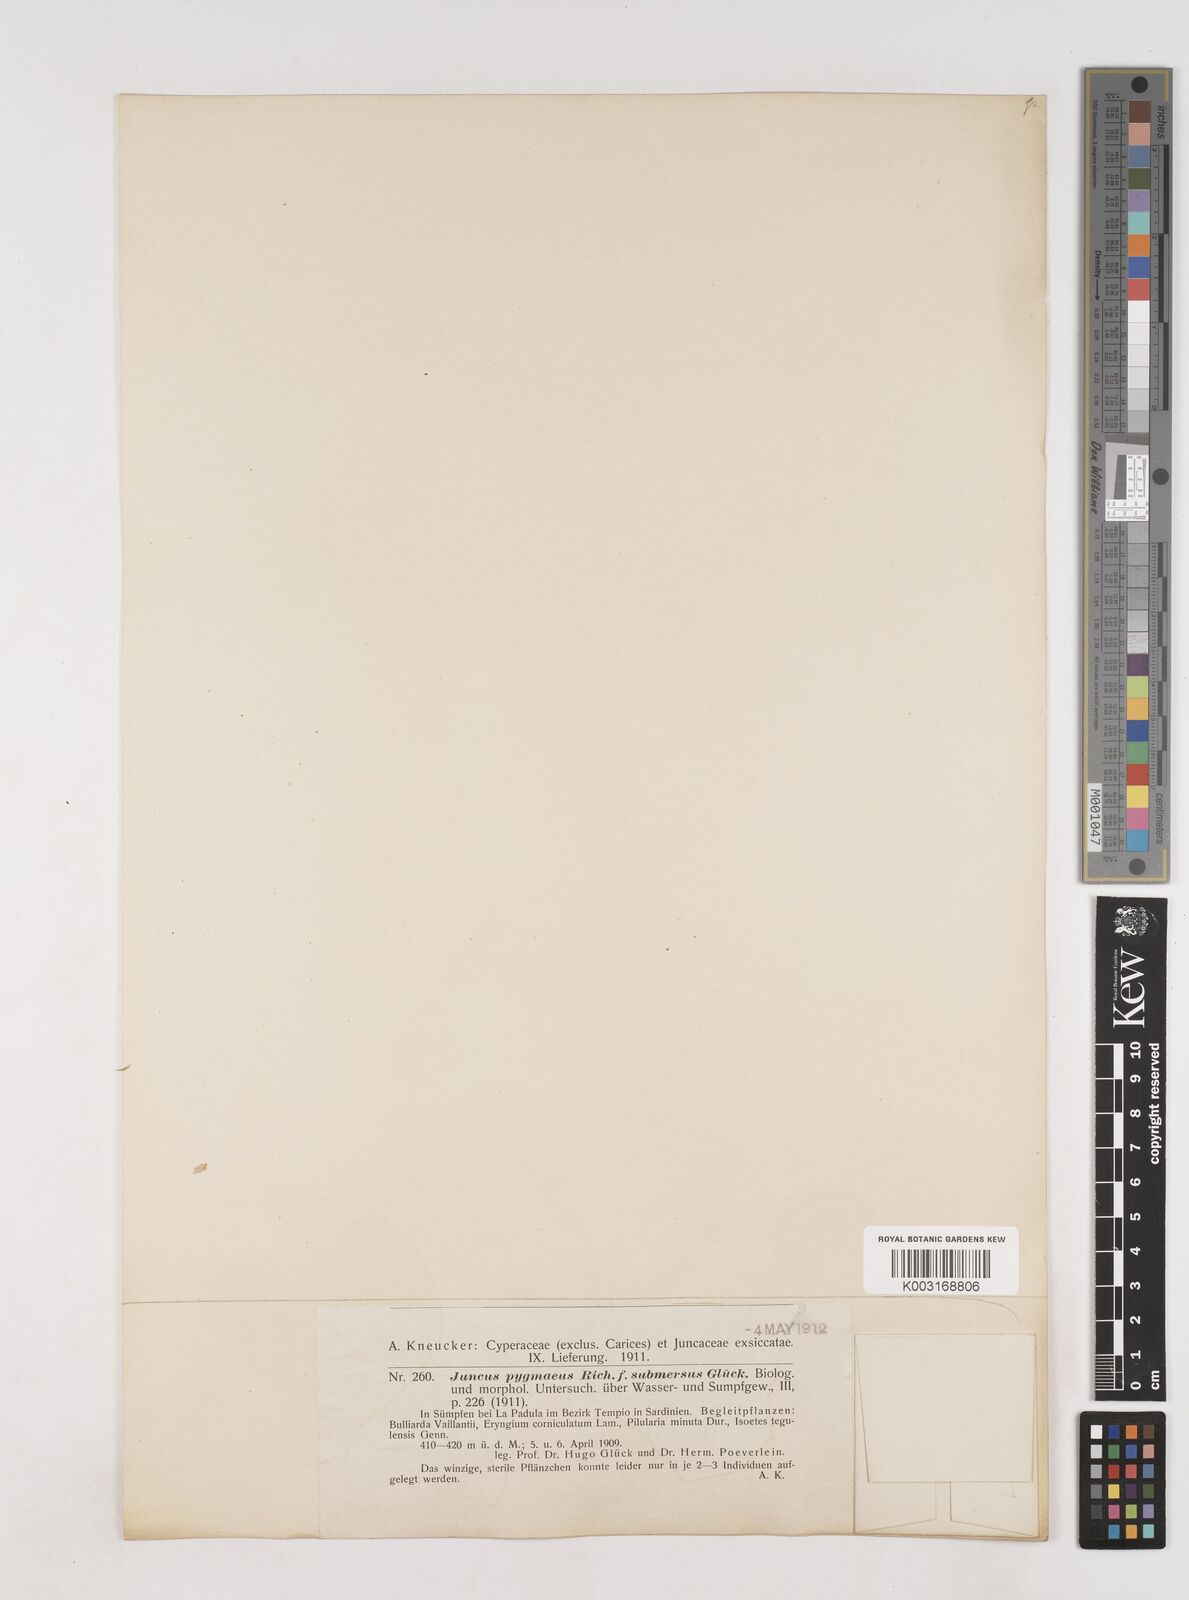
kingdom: Plantae
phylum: Tracheophyta
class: Liliopsida
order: Poales
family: Juncaceae
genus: Juncus
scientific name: Juncus pygmaeus
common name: Pigmy rush
